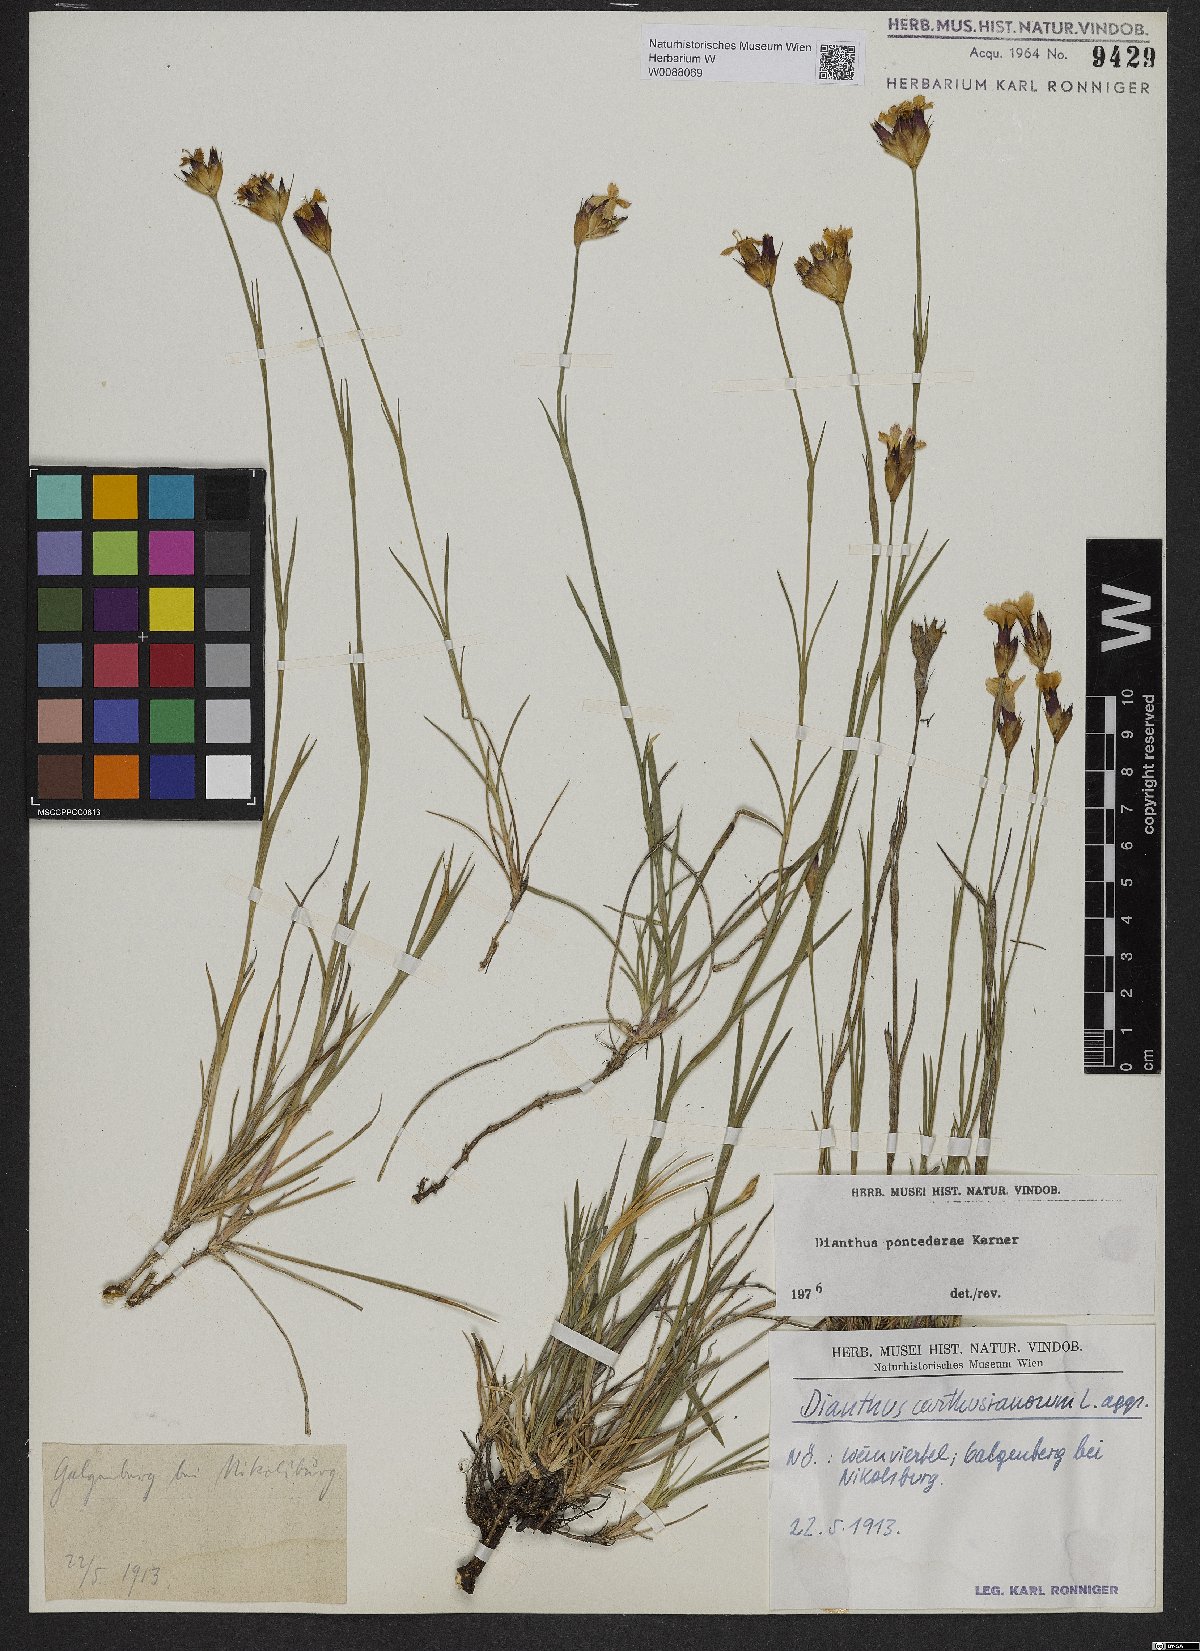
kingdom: Plantae
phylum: Tracheophyta
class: Magnoliopsida
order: Caryophyllales
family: Caryophyllaceae
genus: Dianthus
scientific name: Dianthus pontederae
